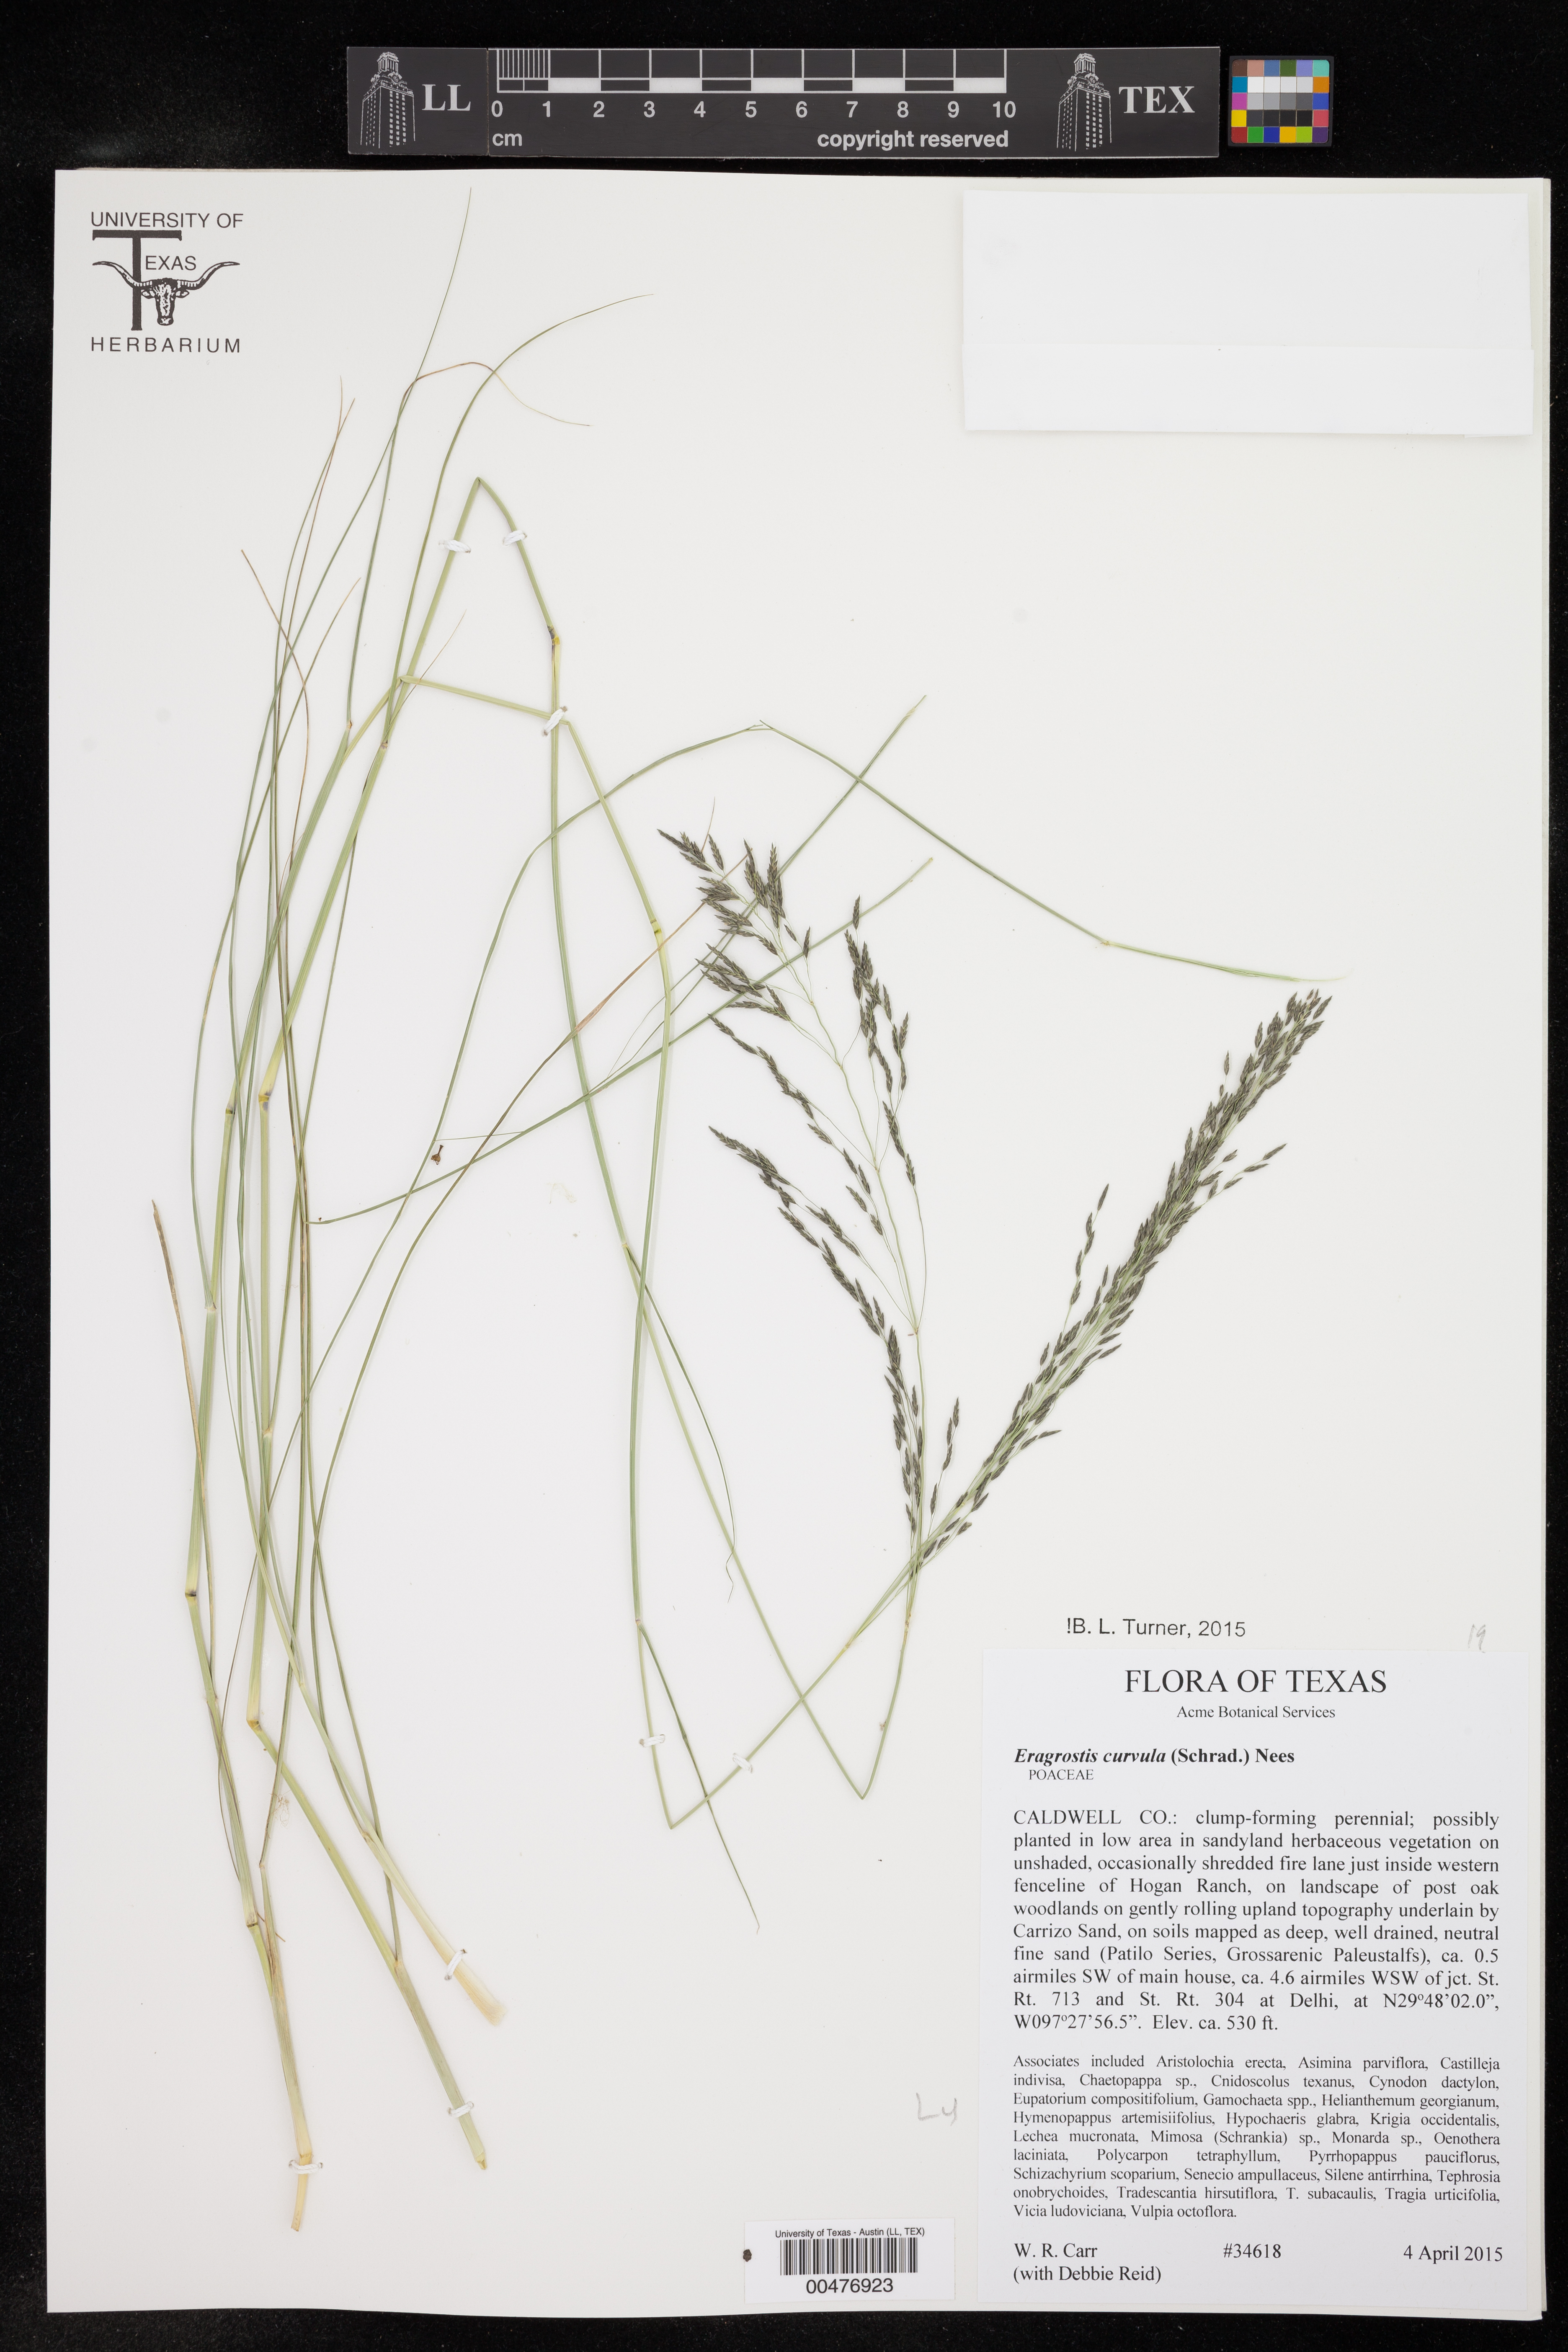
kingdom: Plantae
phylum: Tracheophyta
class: Liliopsida
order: Poales
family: Poaceae
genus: Eragrostis
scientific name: Eragrostis curvula
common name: African love-grass
